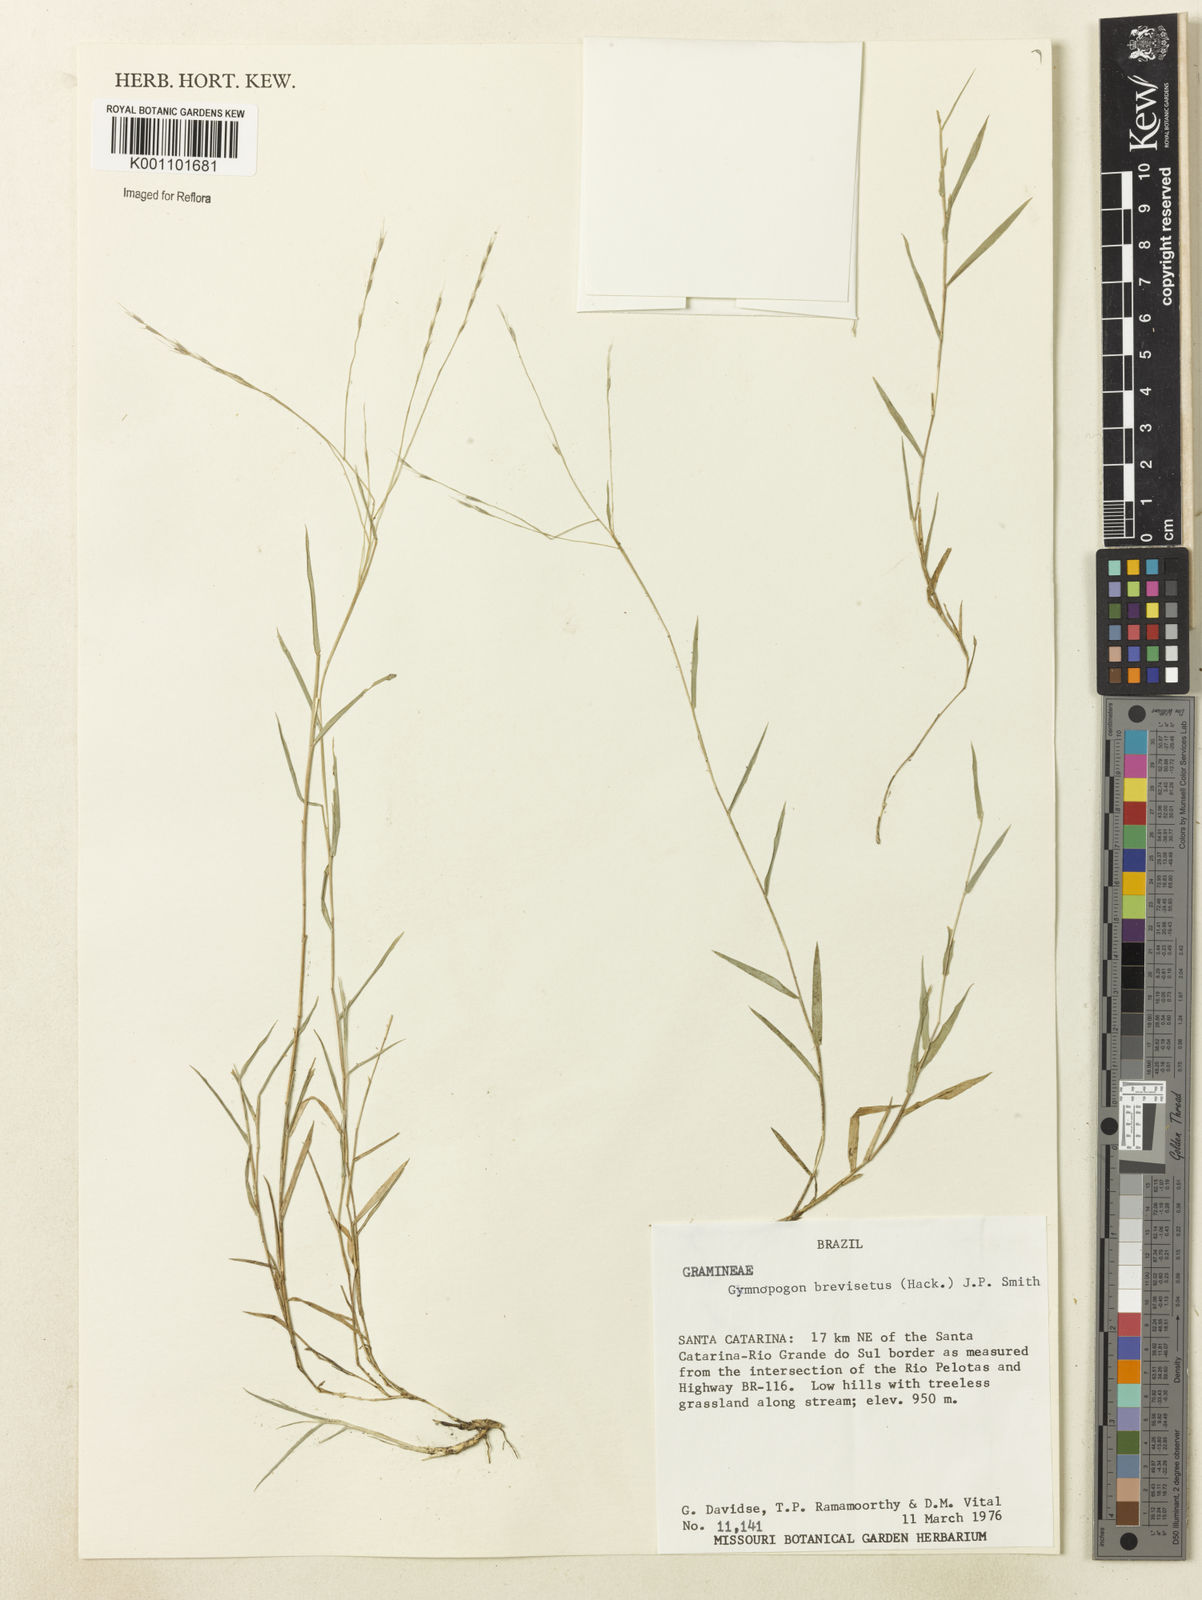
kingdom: Plantae
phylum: Tracheophyta
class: Liliopsida
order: Poales
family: Poaceae
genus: Gymnopogon
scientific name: Gymnopogon grandiflorus
